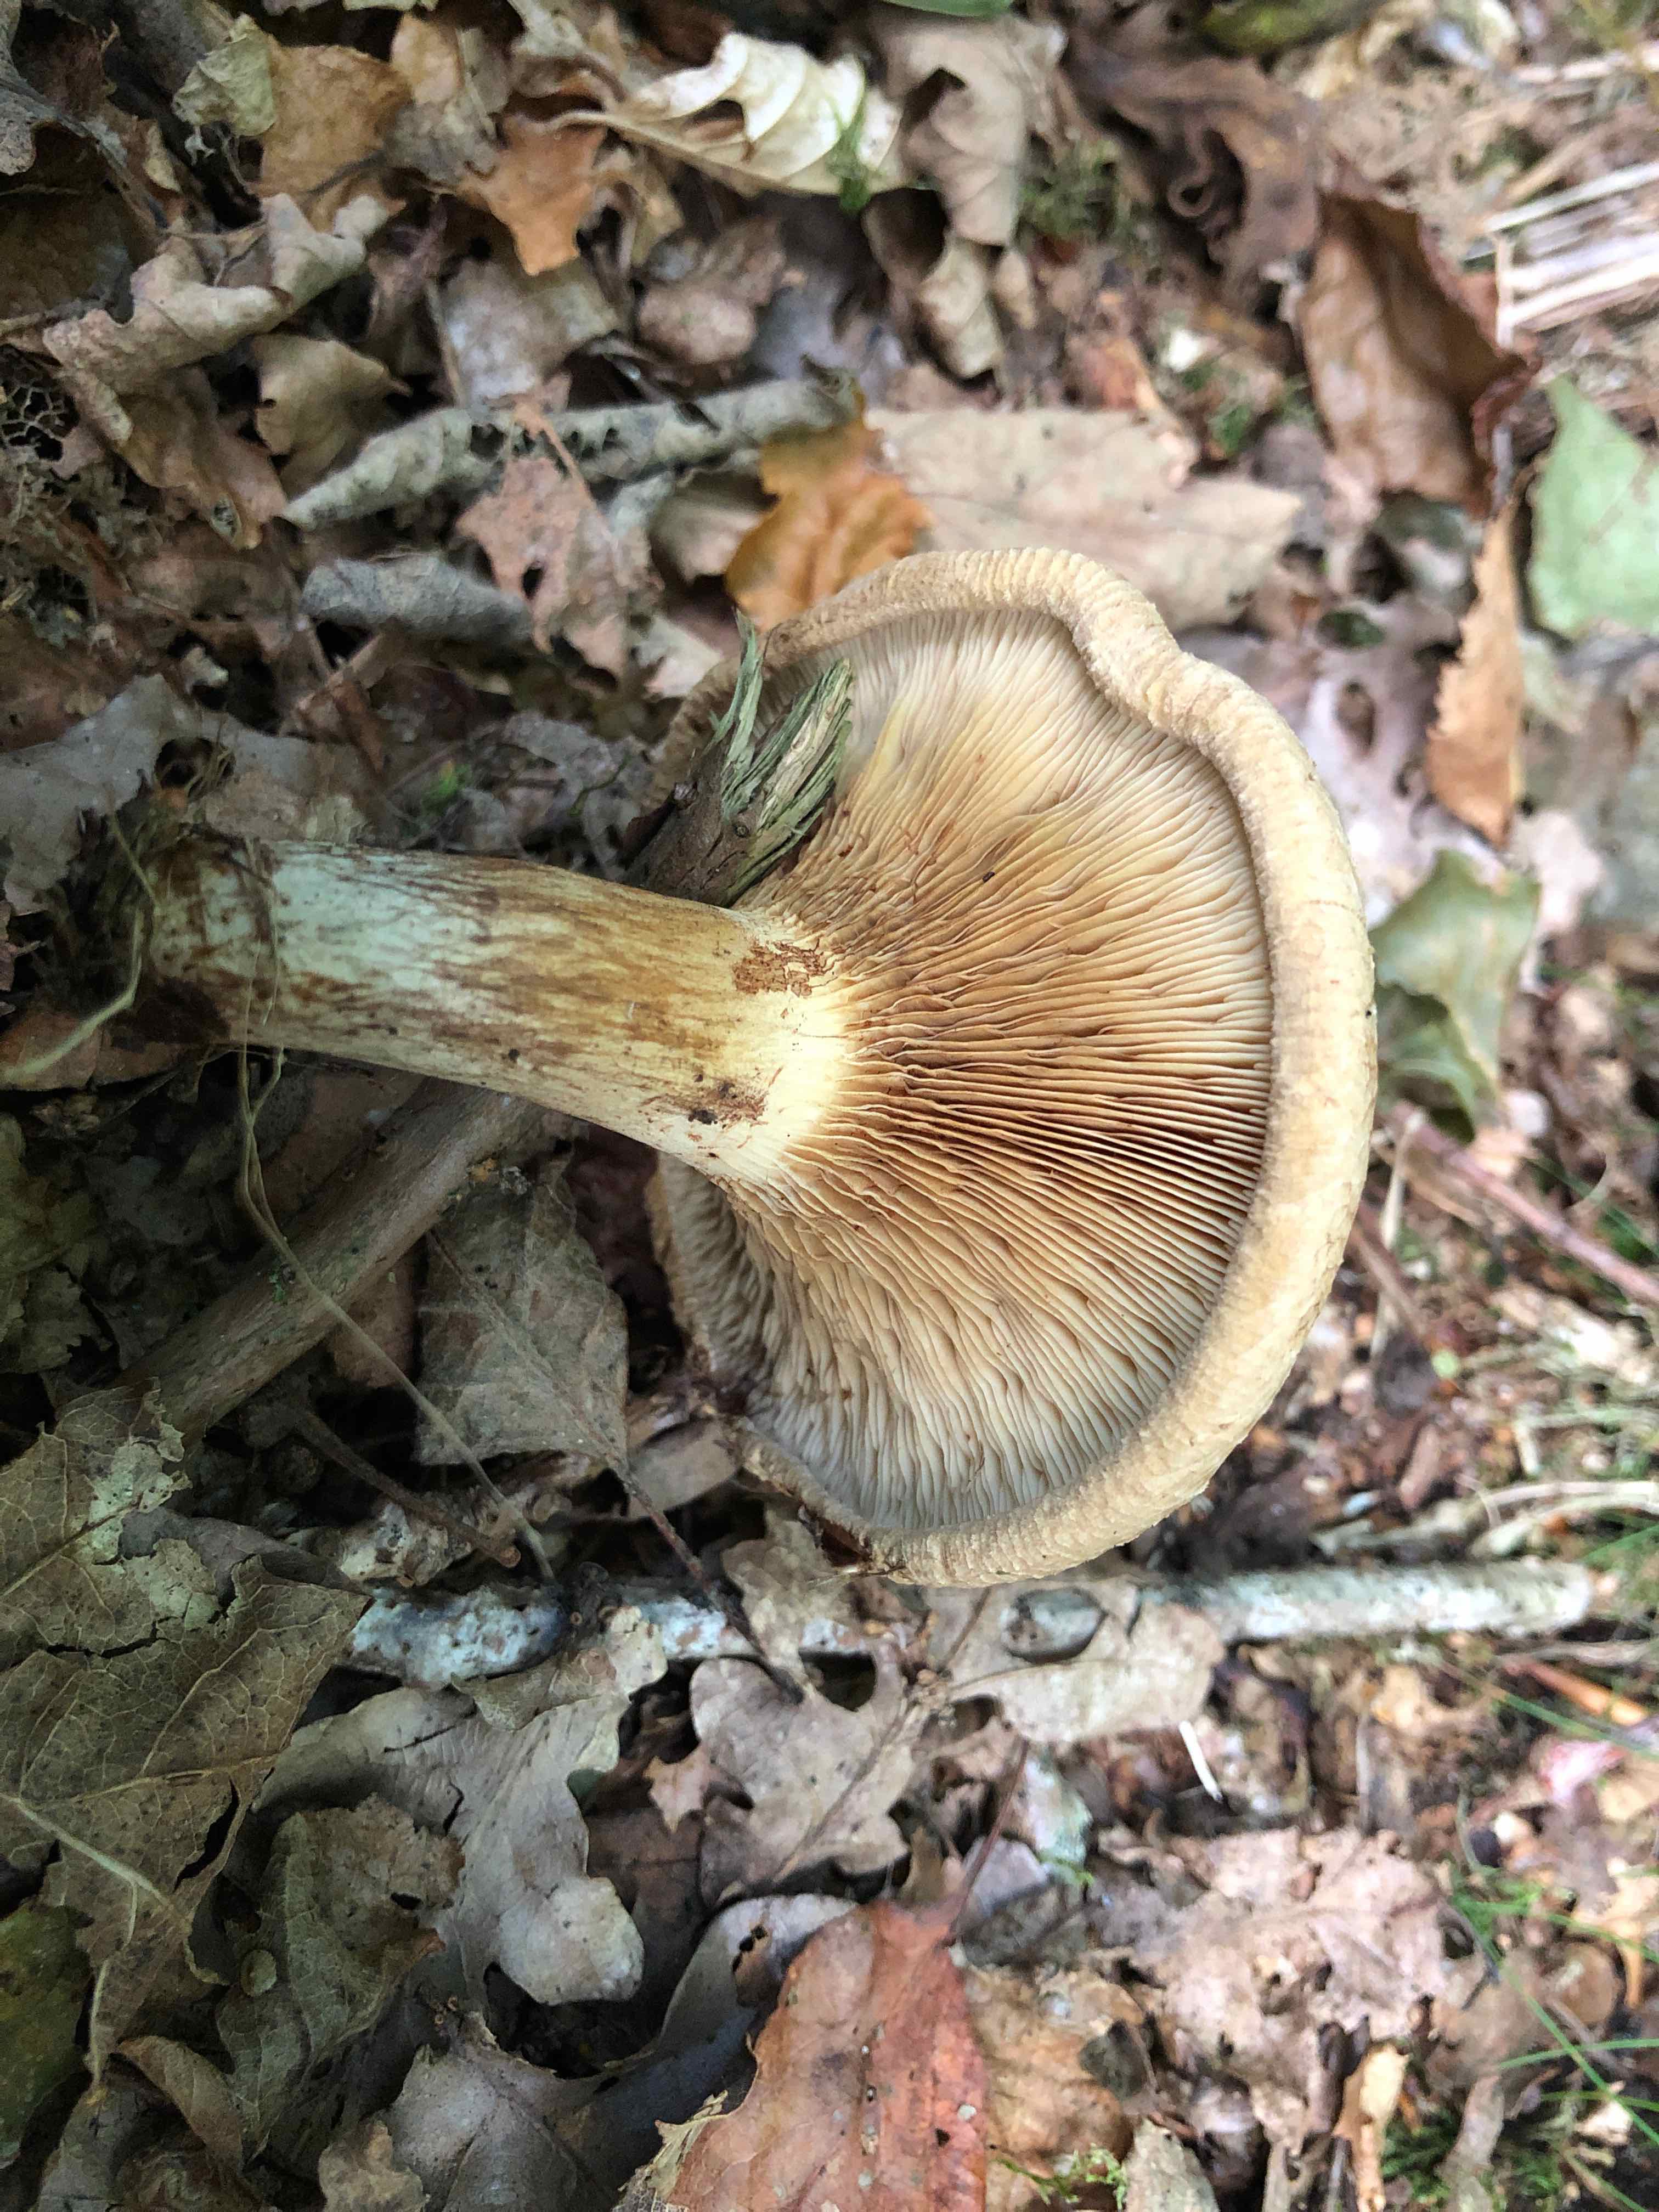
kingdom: Fungi
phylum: Basidiomycota
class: Agaricomycetes
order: Boletales
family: Paxillaceae
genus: Paxillus
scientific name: Paxillus involutus
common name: almindelig netbladhat
